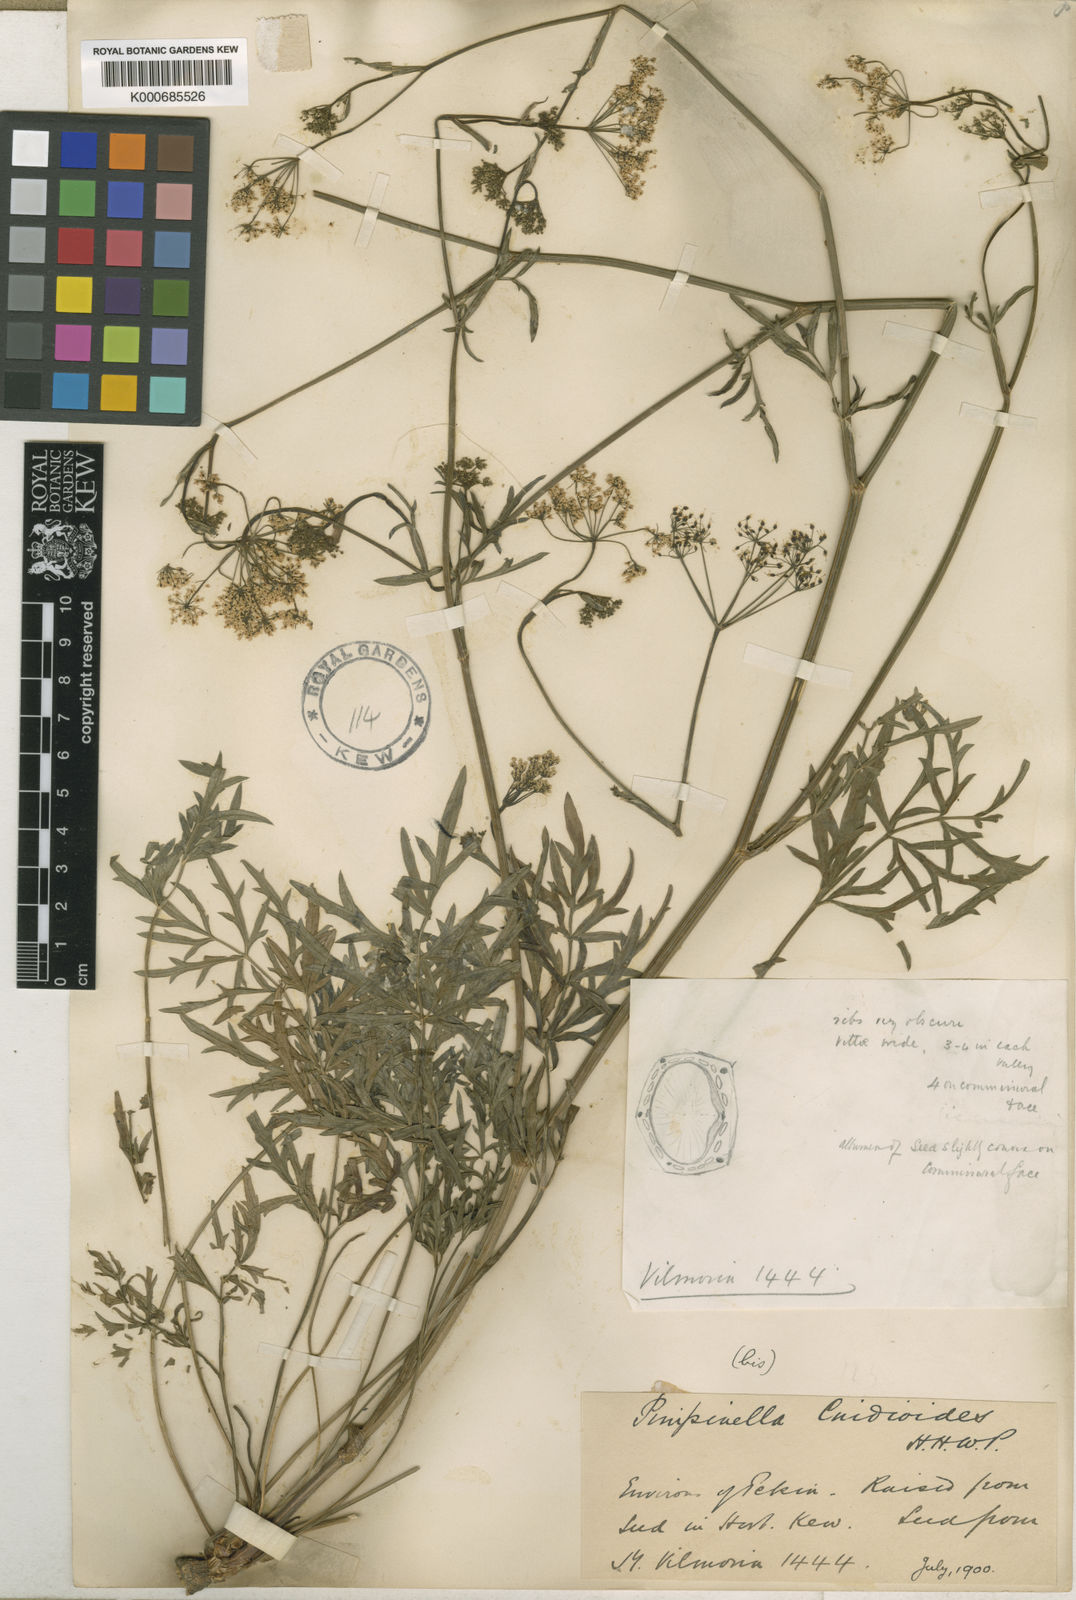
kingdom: Plantae
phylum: Tracheophyta
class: Magnoliopsida
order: Apiales
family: Apiaceae
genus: Pimpinella
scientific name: Pimpinella
